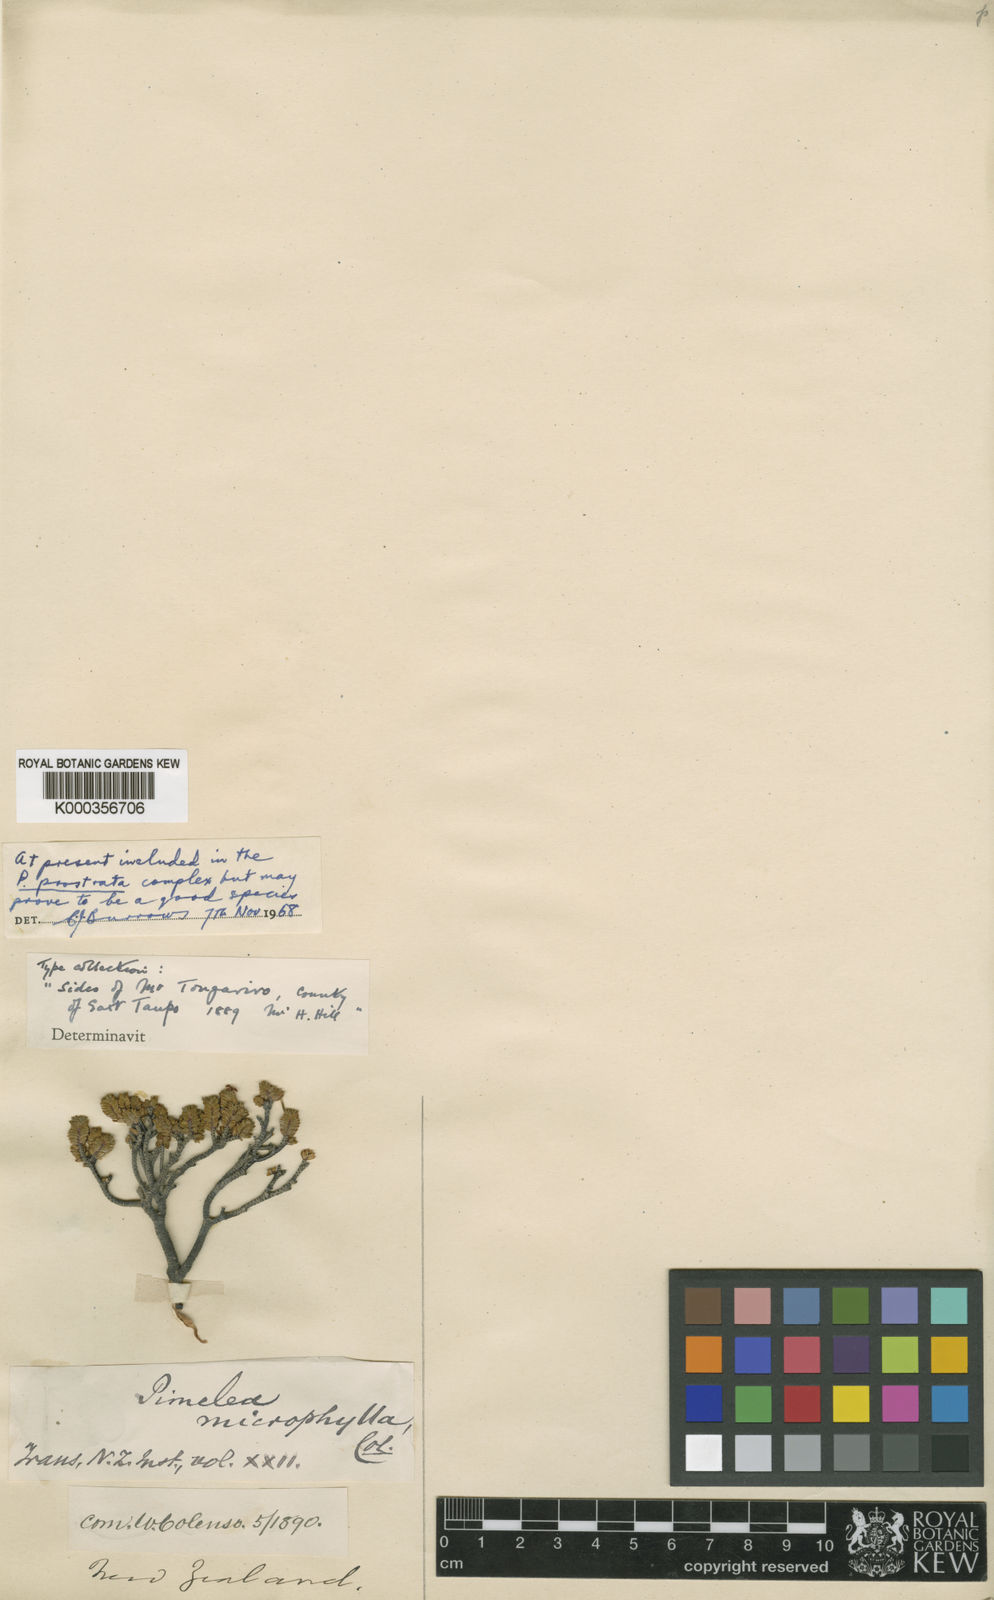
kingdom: Plantae
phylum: Tracheophyta
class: Magnoliopsida
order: Malvales
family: Thymelaeaceae
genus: Pimelea
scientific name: Pimelea
